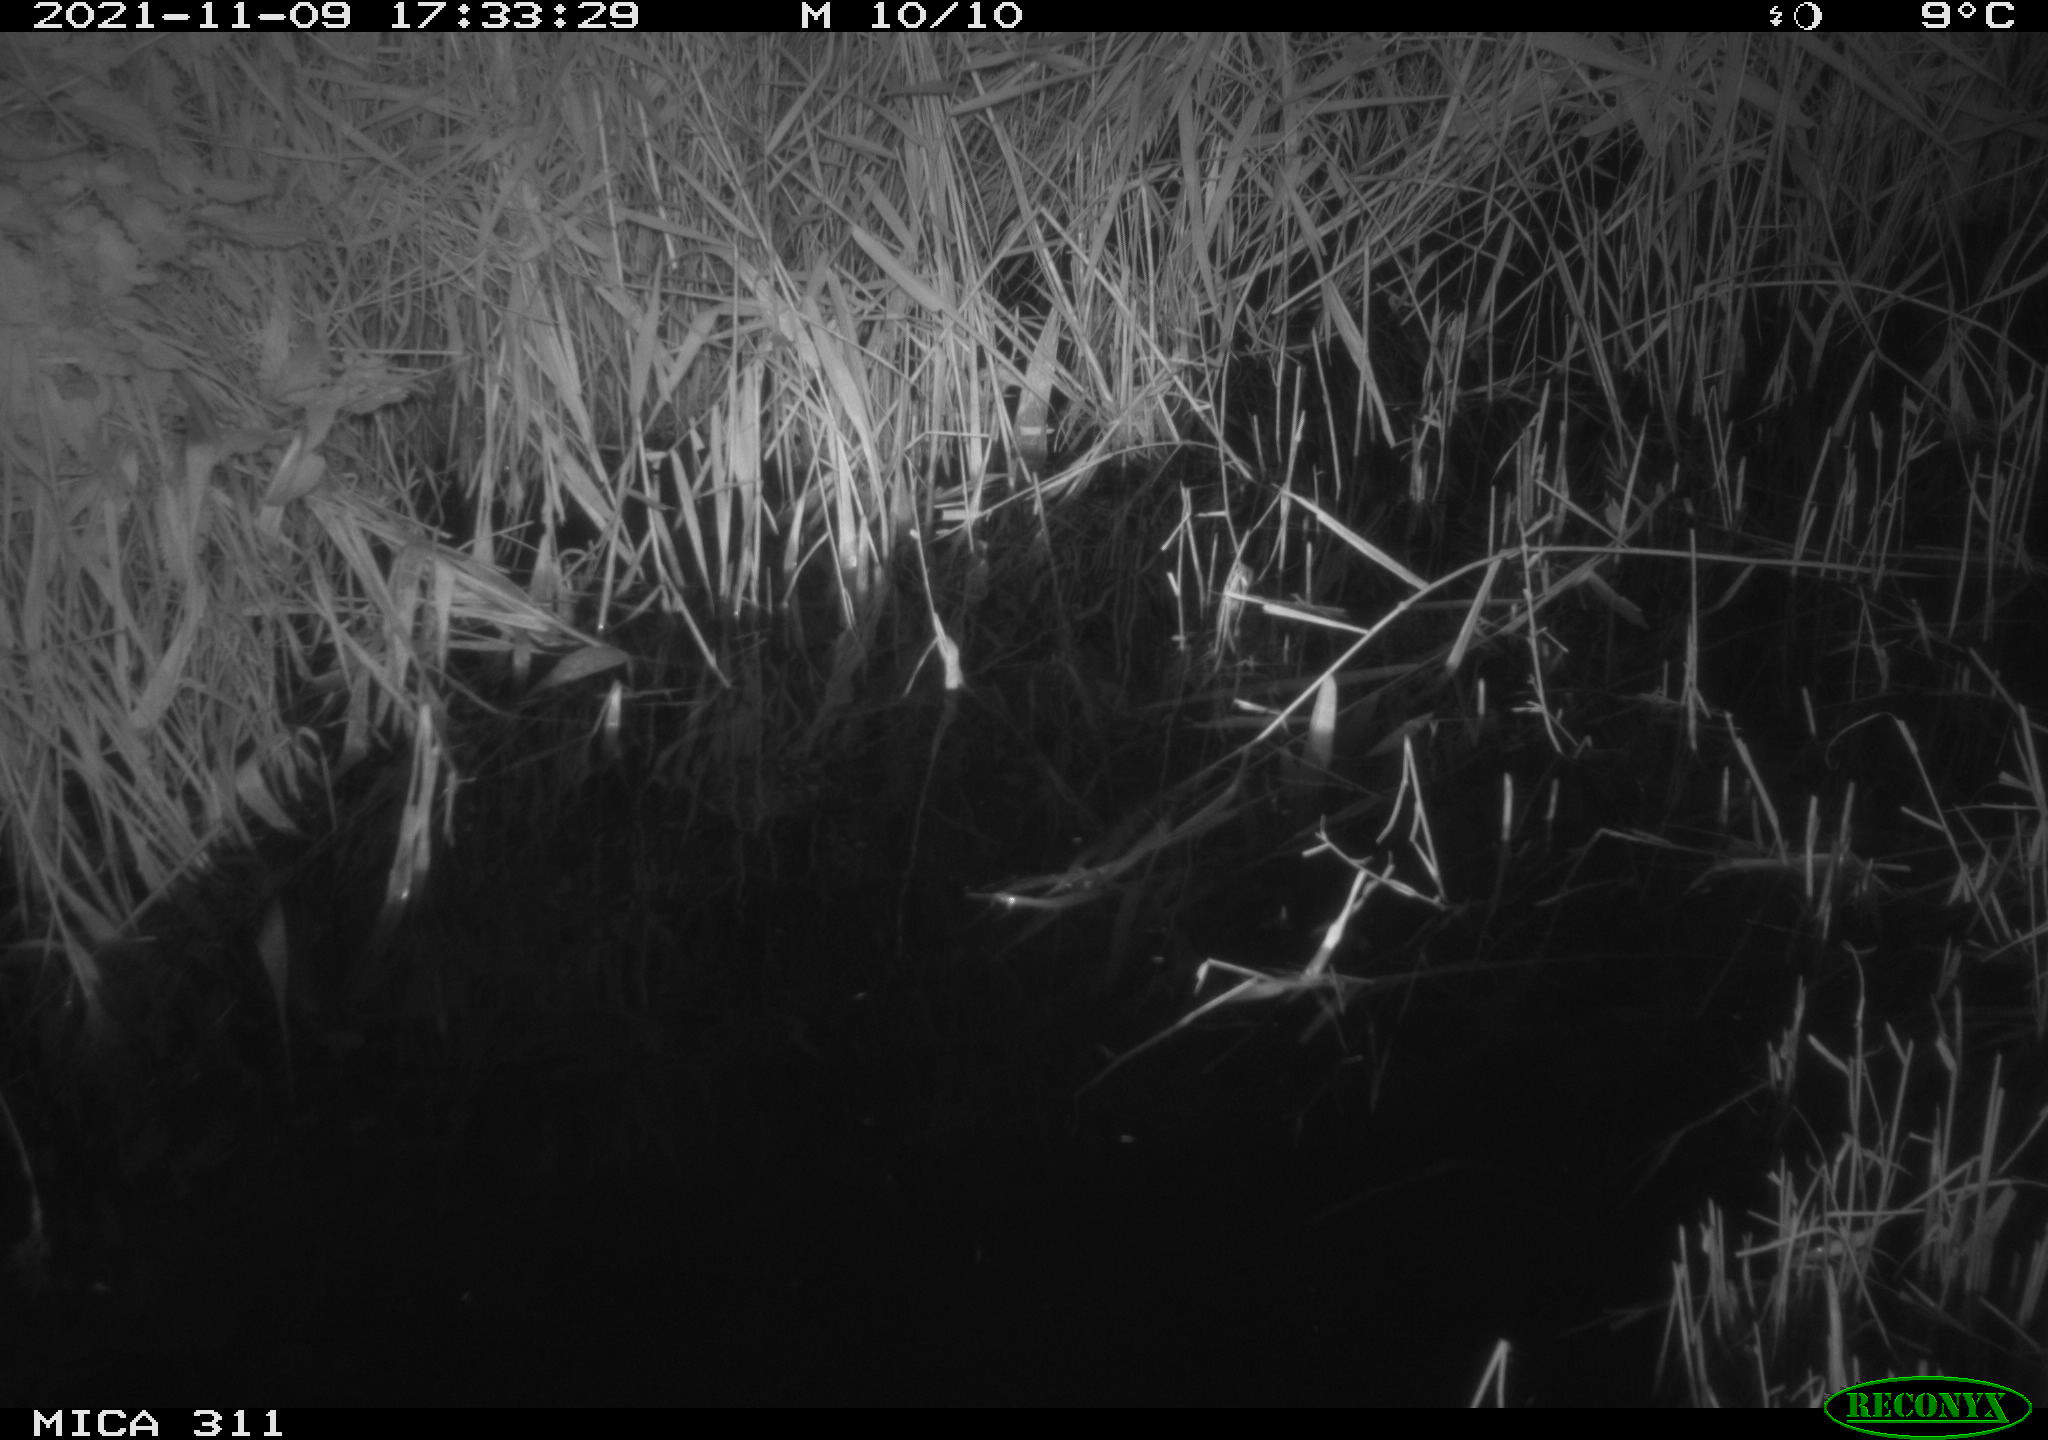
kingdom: Animalia
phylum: Chordata
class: Mammalia
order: Rodentia
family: Muridae
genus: Rattus
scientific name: Rattus norvegicus
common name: Brown rat
